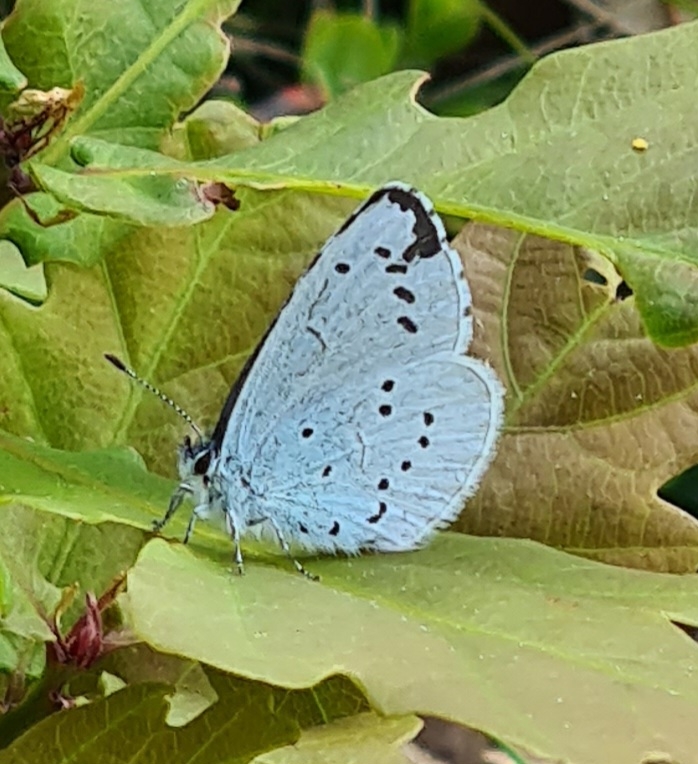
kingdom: Animalia
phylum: Arthropoda
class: Insecta
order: Lepidoptera
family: Lycaenidae
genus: Celastrina
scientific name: Celastrina argiolus
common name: Skovblåfugl
